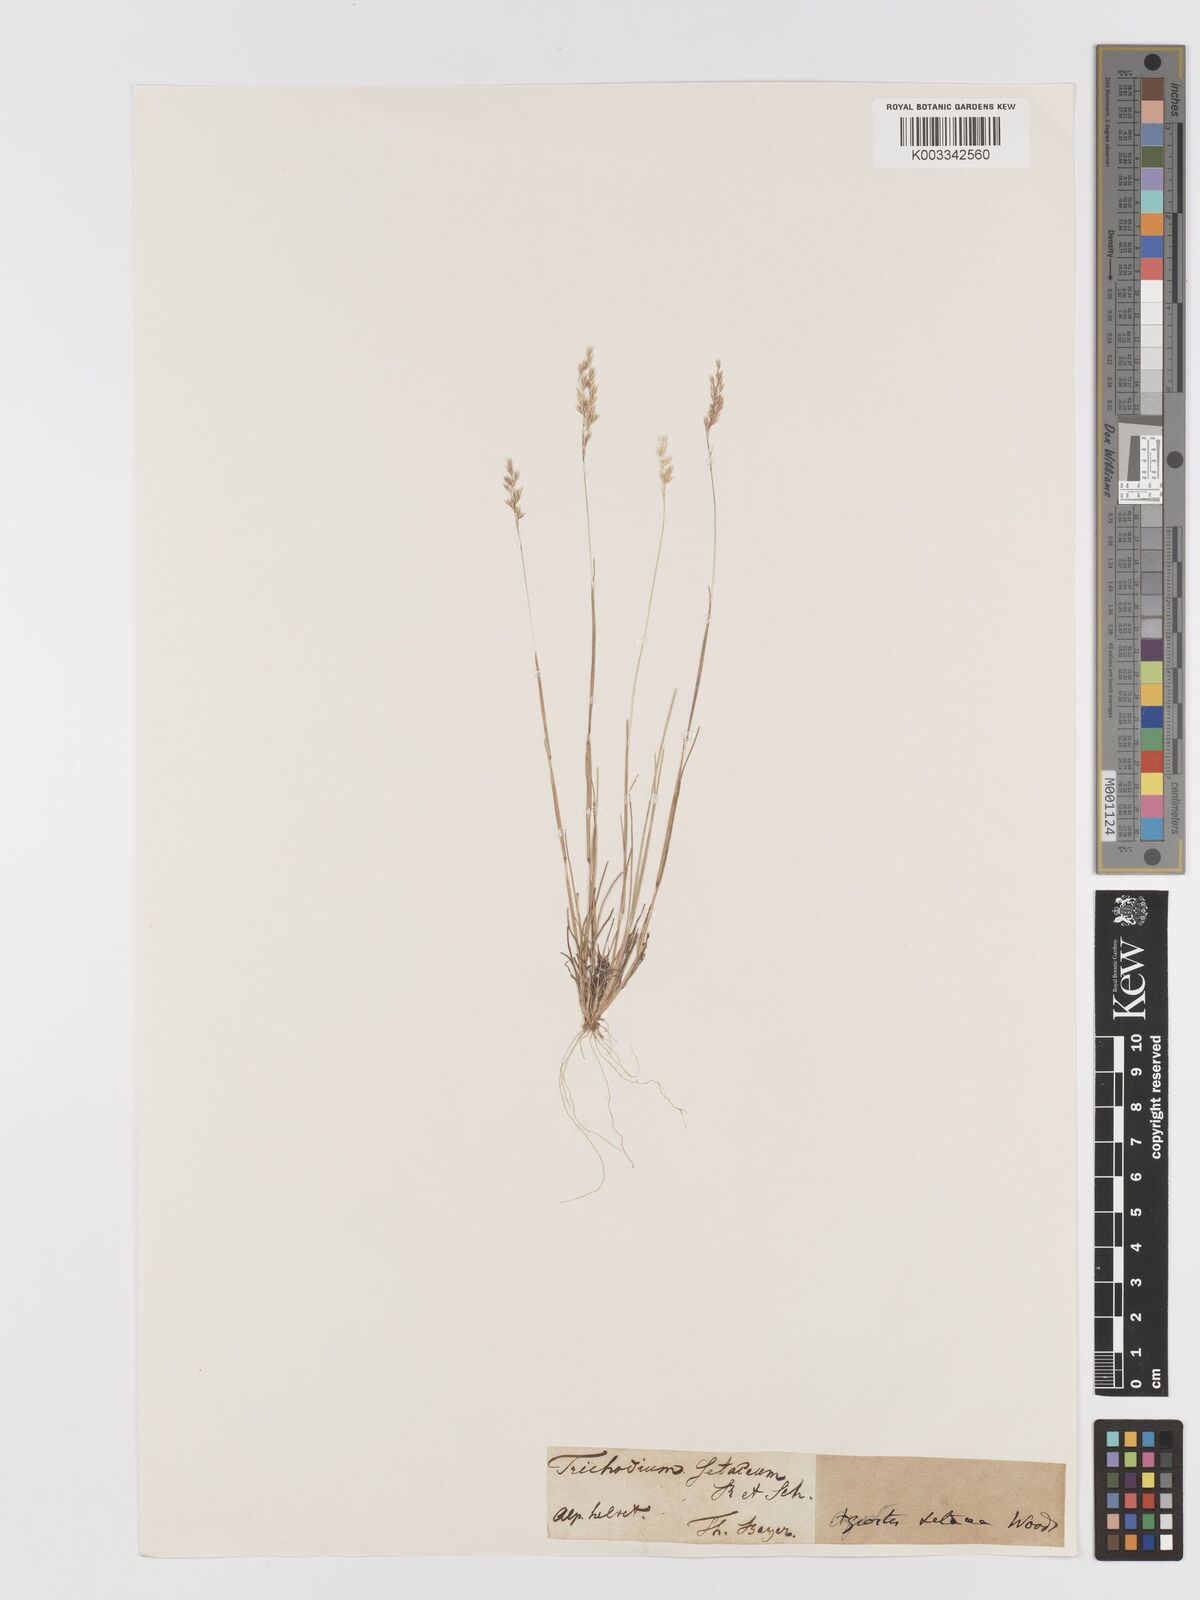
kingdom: Plantae
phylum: Tracheophyta
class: Liliopsida
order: Poales
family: Poaceae
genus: Agrostis
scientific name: Agrostis
